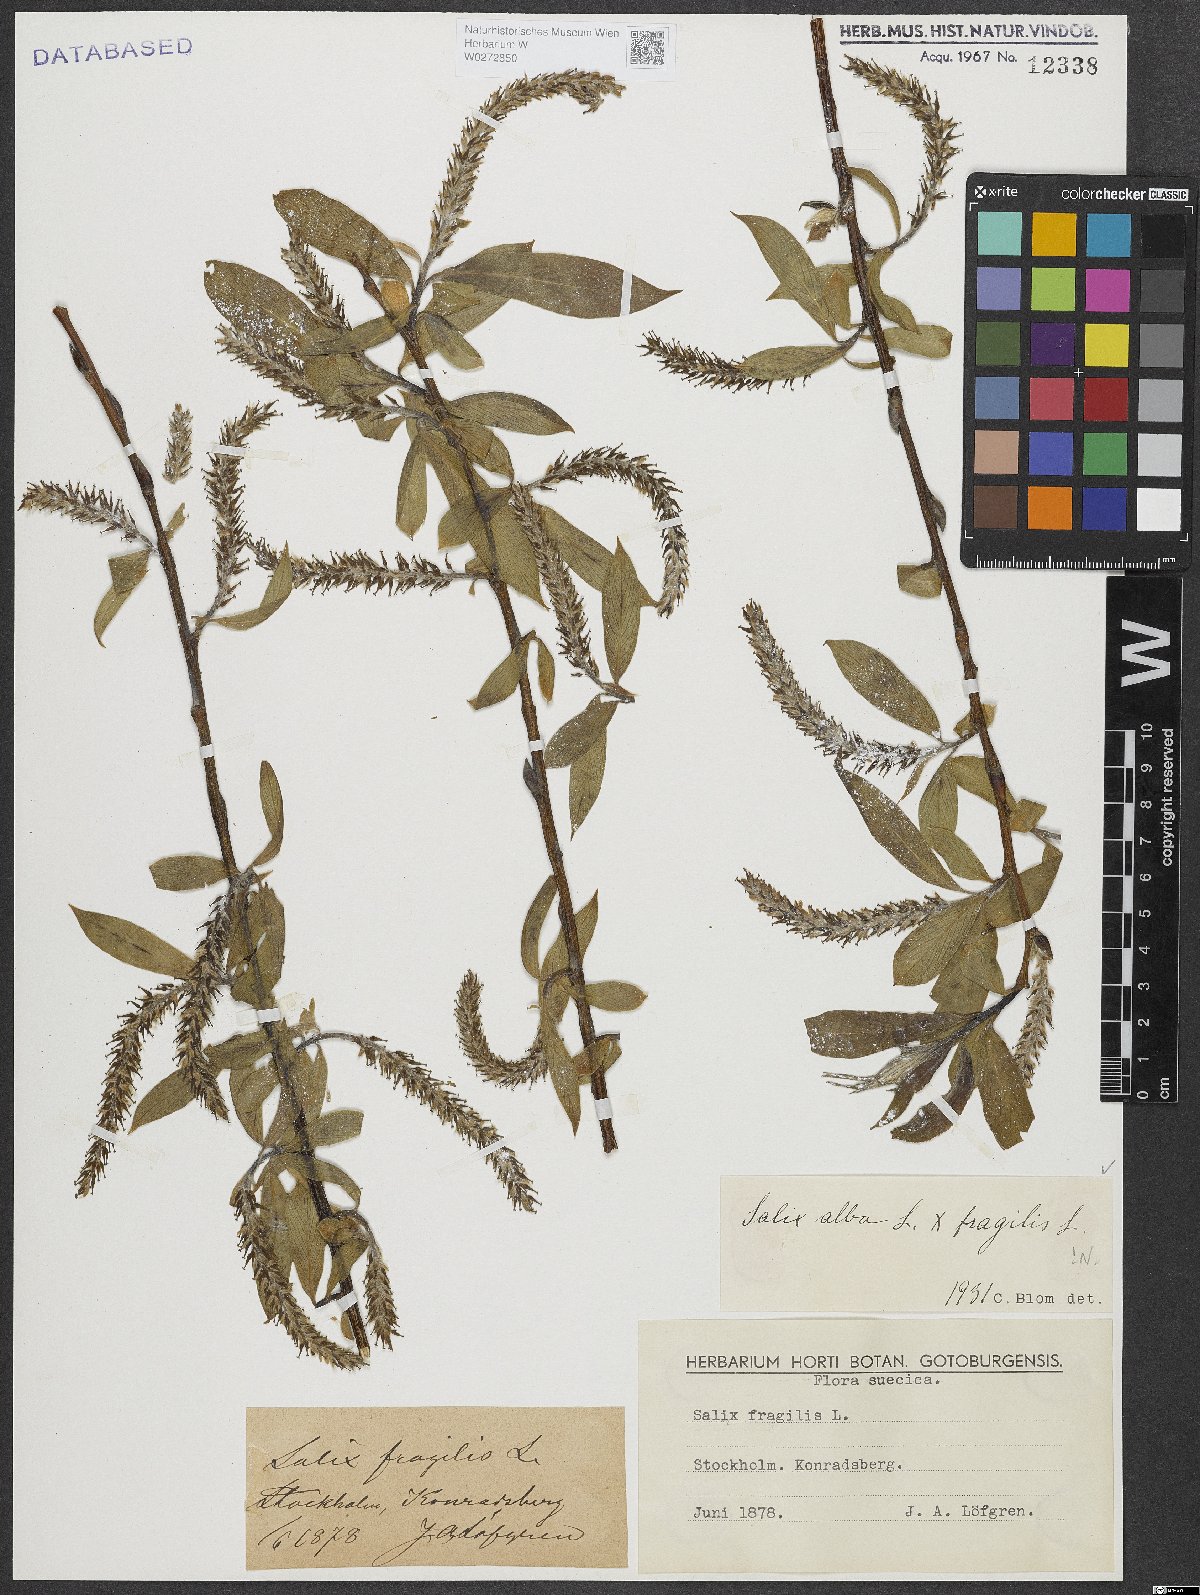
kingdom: Plantae
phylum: Tracheophyta
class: Magnoliopsida
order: Malpighiales
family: Salicaceae
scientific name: Salicaceae
